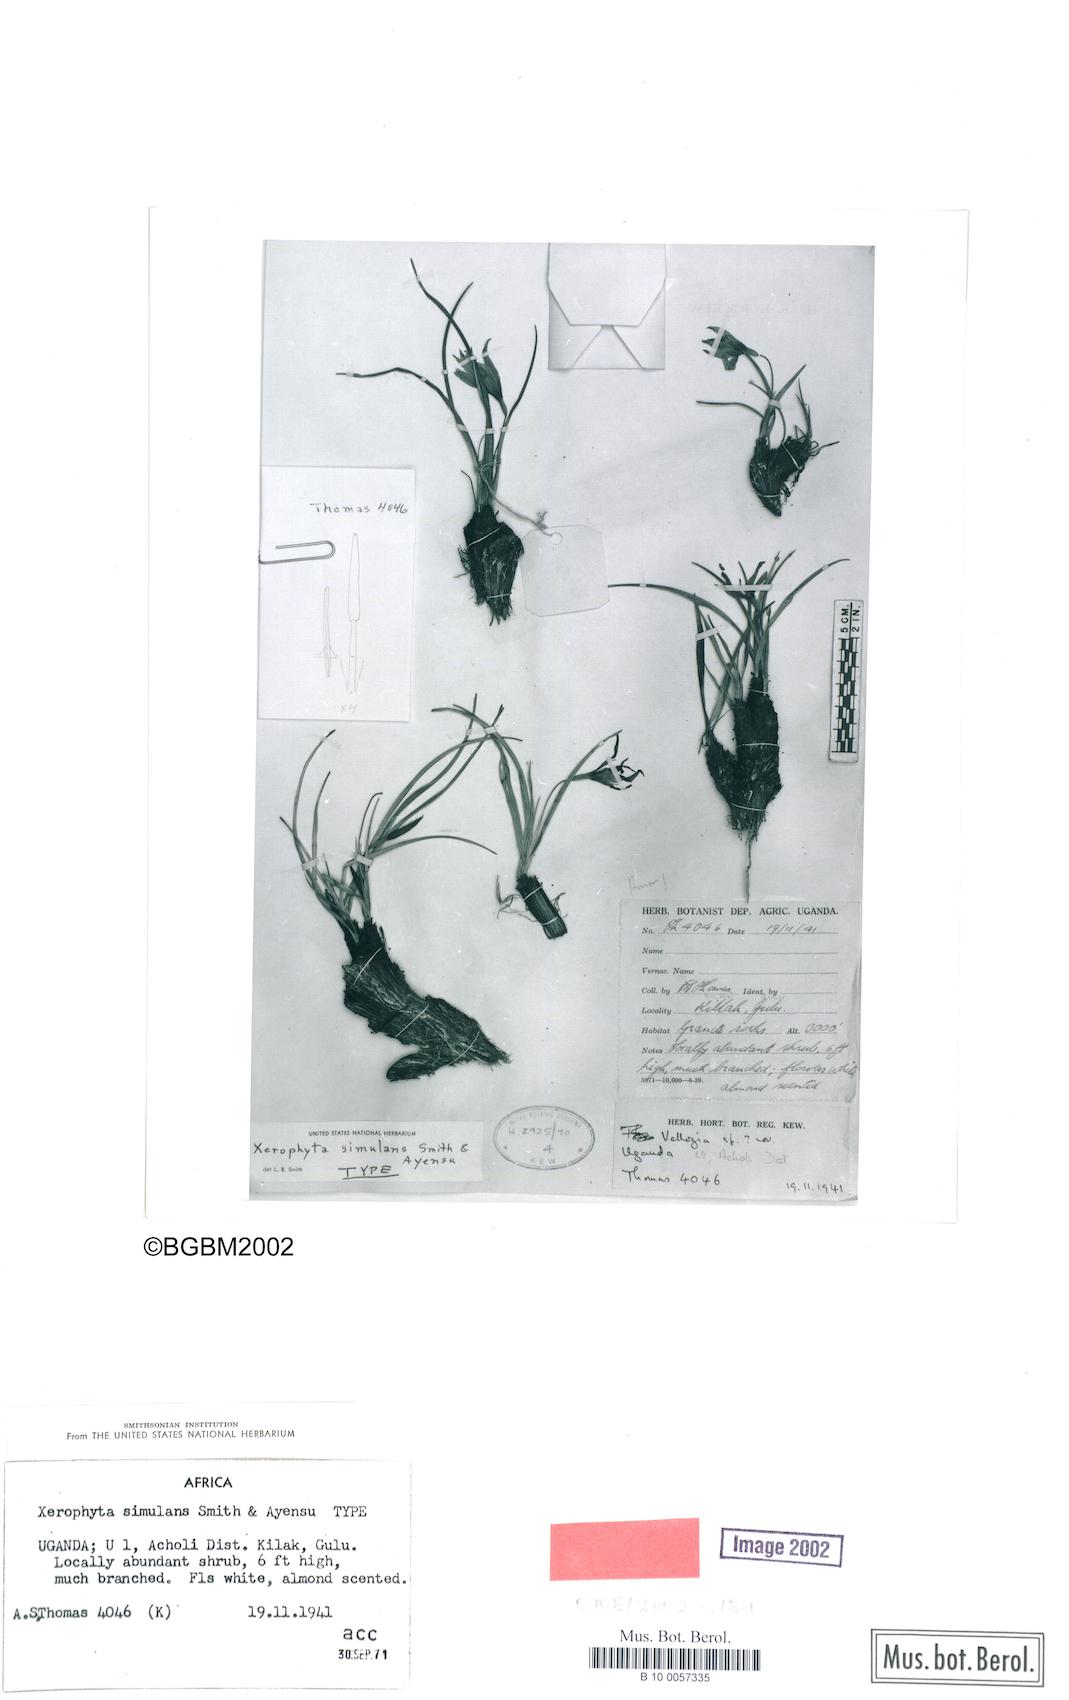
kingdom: Plantae
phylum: Tracheophyta
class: Liliopsida
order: Pandanales
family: Velloziaceae
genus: Xerophyta
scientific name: Xerophyta simulans
